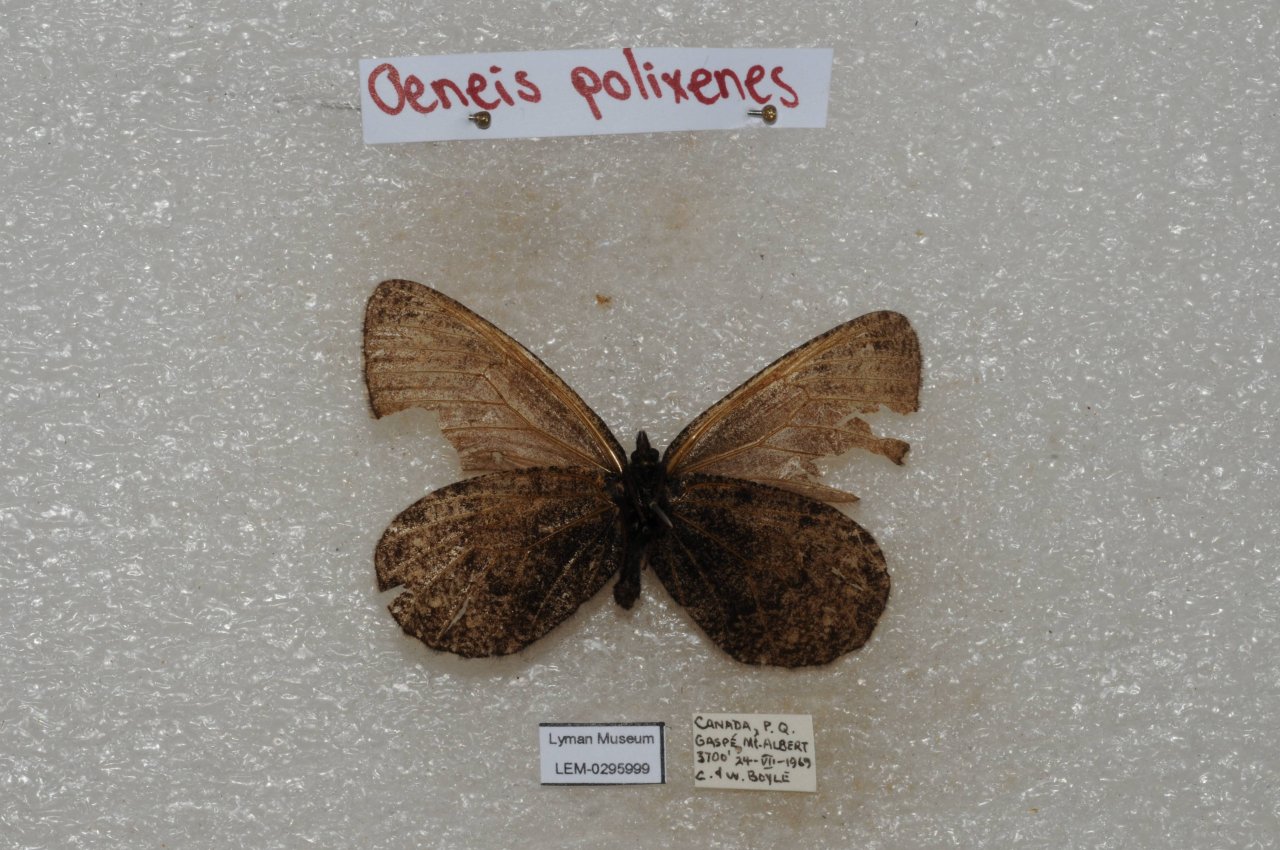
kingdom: Animalia
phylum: Arthropoda
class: Insecta
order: Lepidoptera
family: Nymphalidae
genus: Oeneis
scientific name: Oeneis bore
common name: Polixenes Arctic
